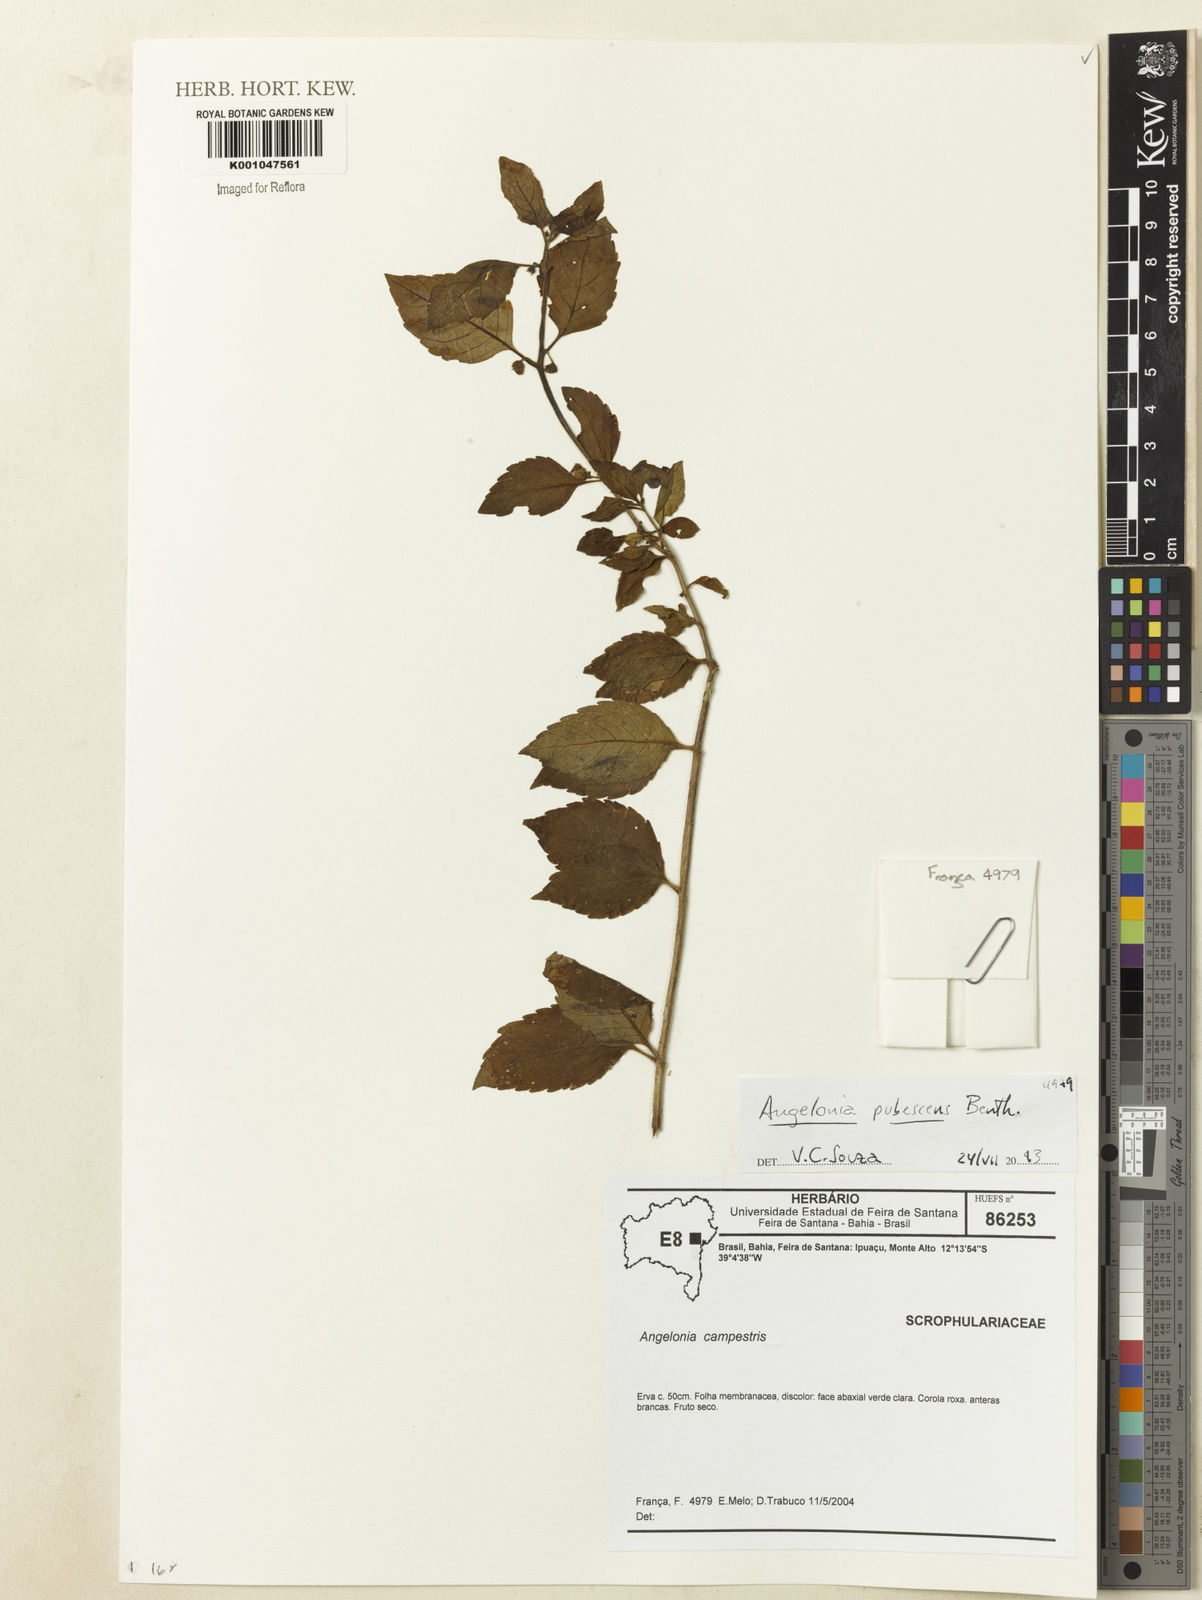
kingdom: Plantae
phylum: Tracheophyta
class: Magnoliopsida
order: Lamiales
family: Plantaginaceae
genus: Angelonia
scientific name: Angelonia pubescens
